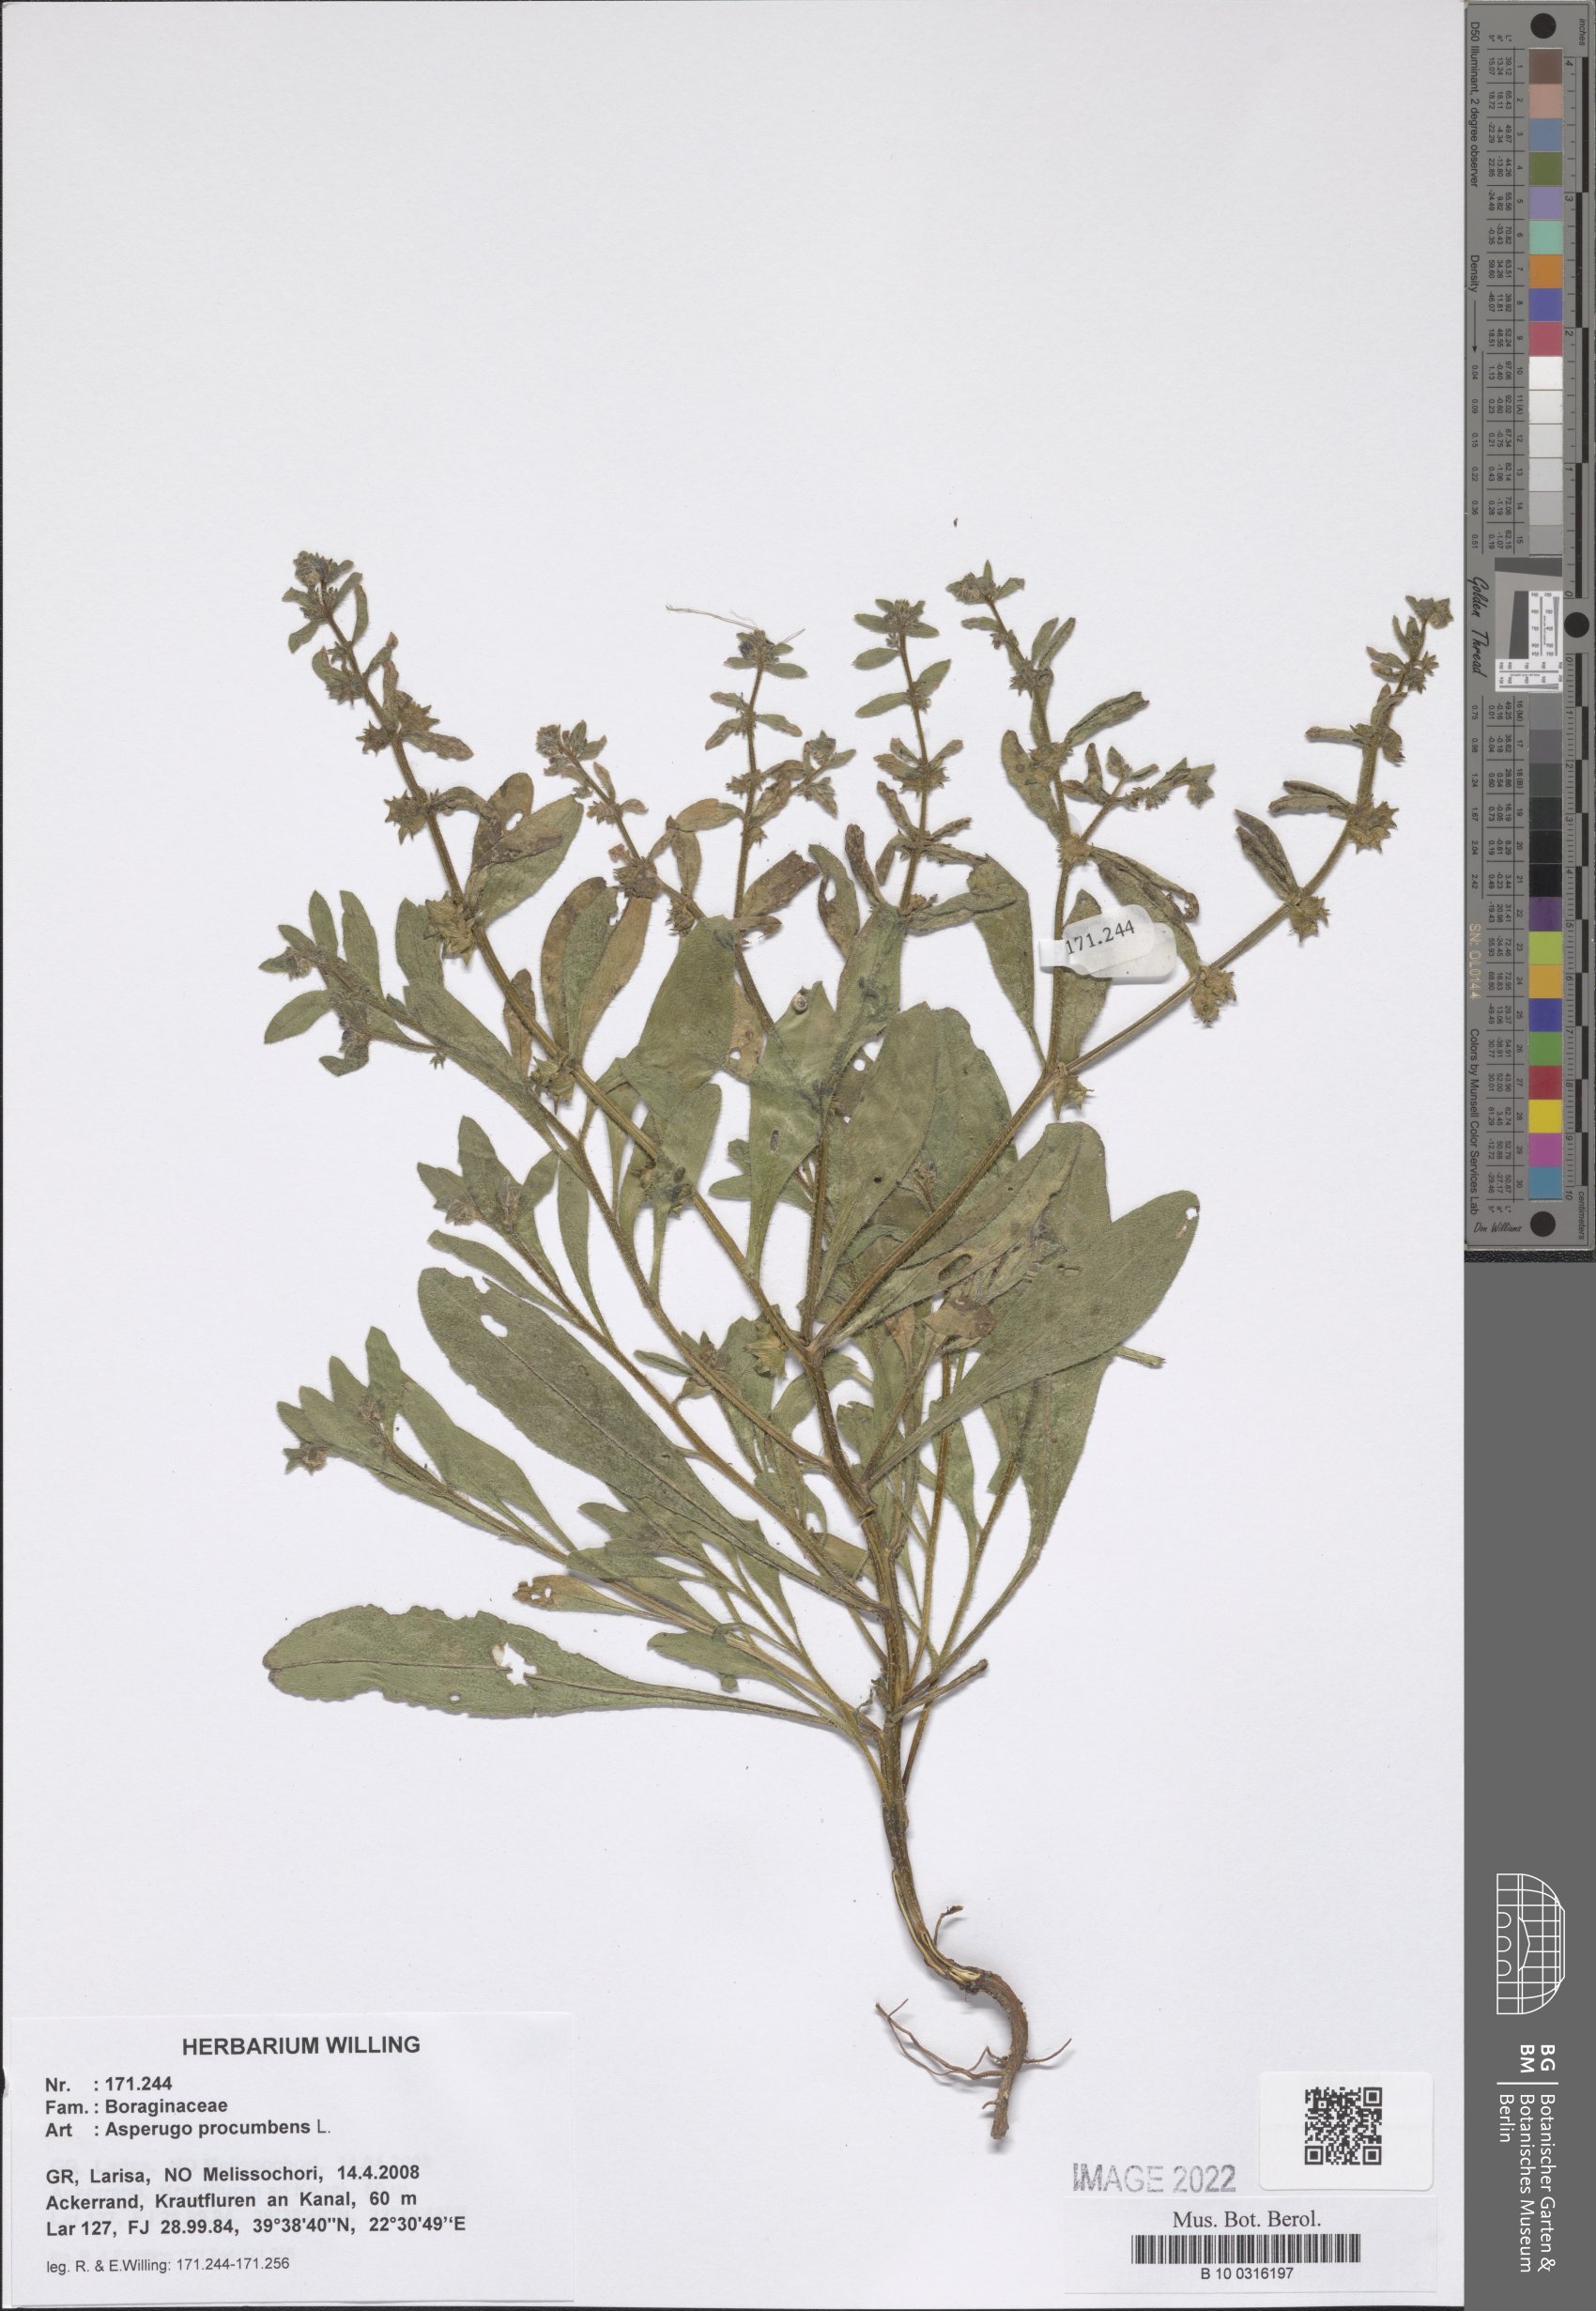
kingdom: Plantae
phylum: Tracheophyta
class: Magnoliopsida
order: Boraginales
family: Boraginaceae
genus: Asperugo
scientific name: Asperugo procumbens
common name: Madwort
